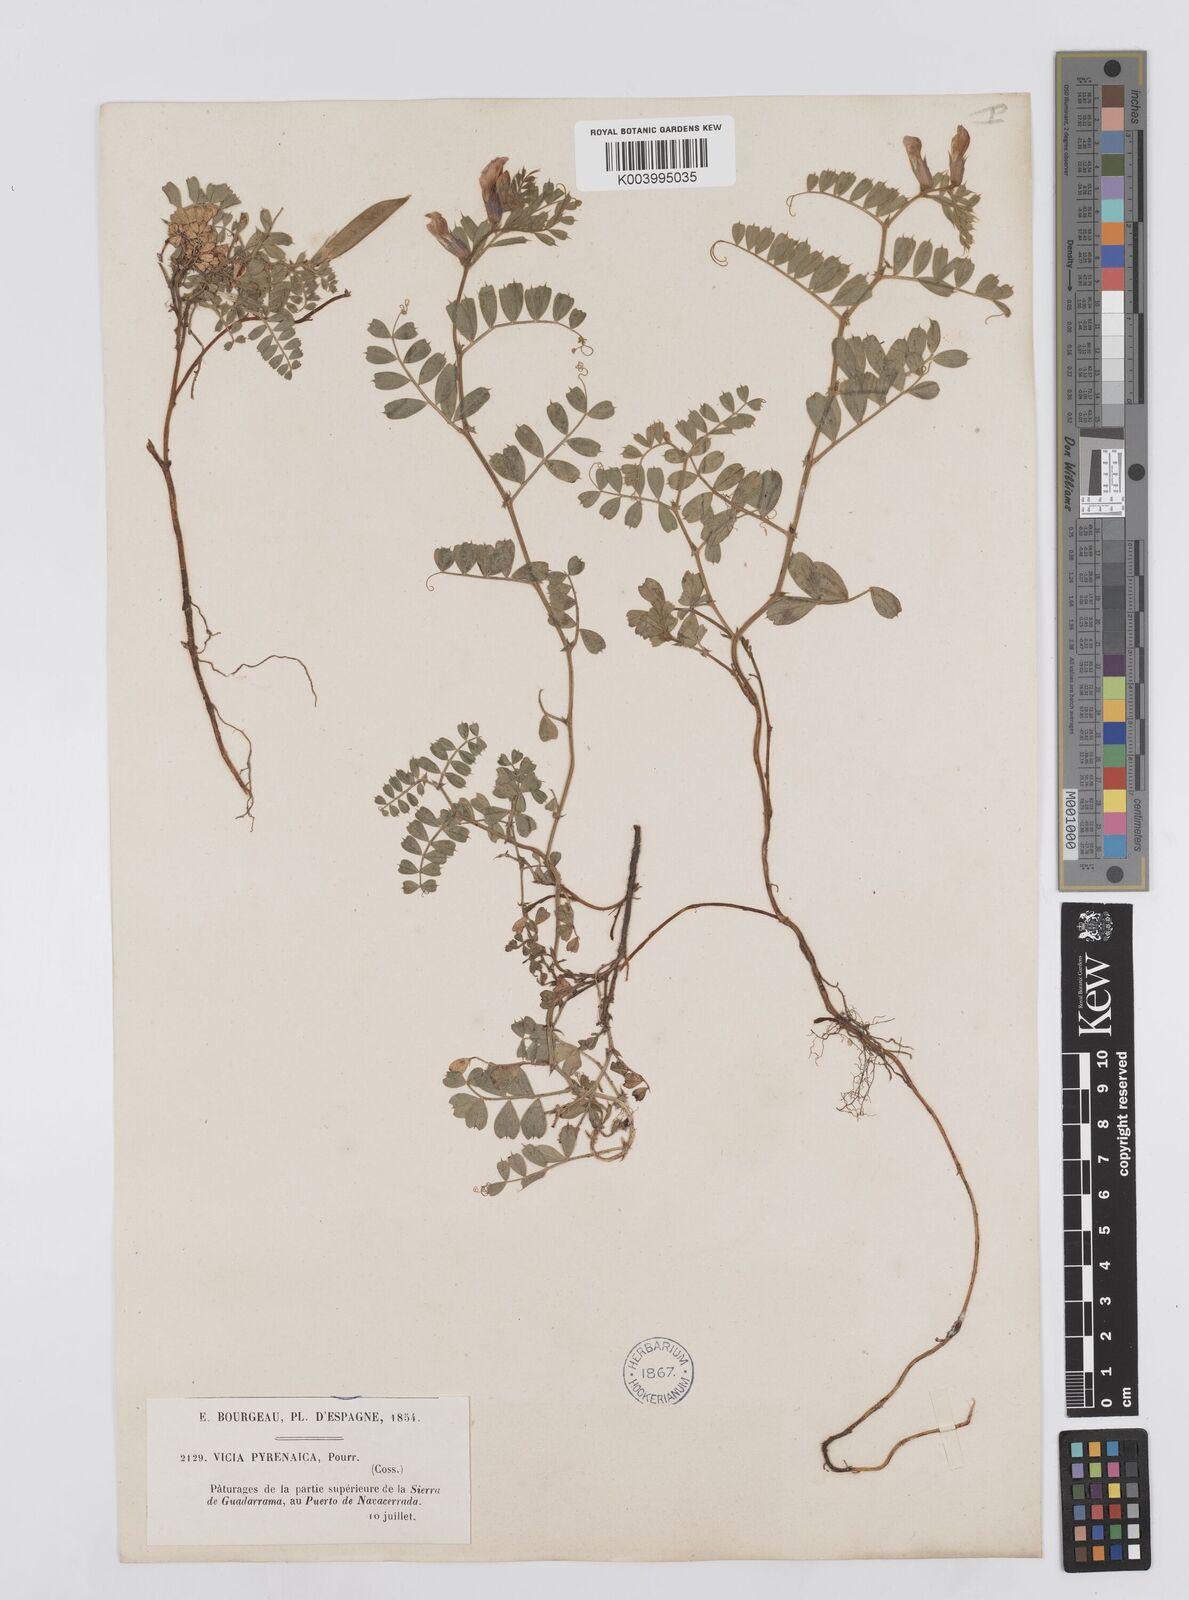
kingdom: Plantae
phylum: Tracheophyta
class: Magnoliopsida
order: Fabales
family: Fabaceae
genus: Vicia
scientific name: Vicia pyrenaica
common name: Pyrenean vetch
